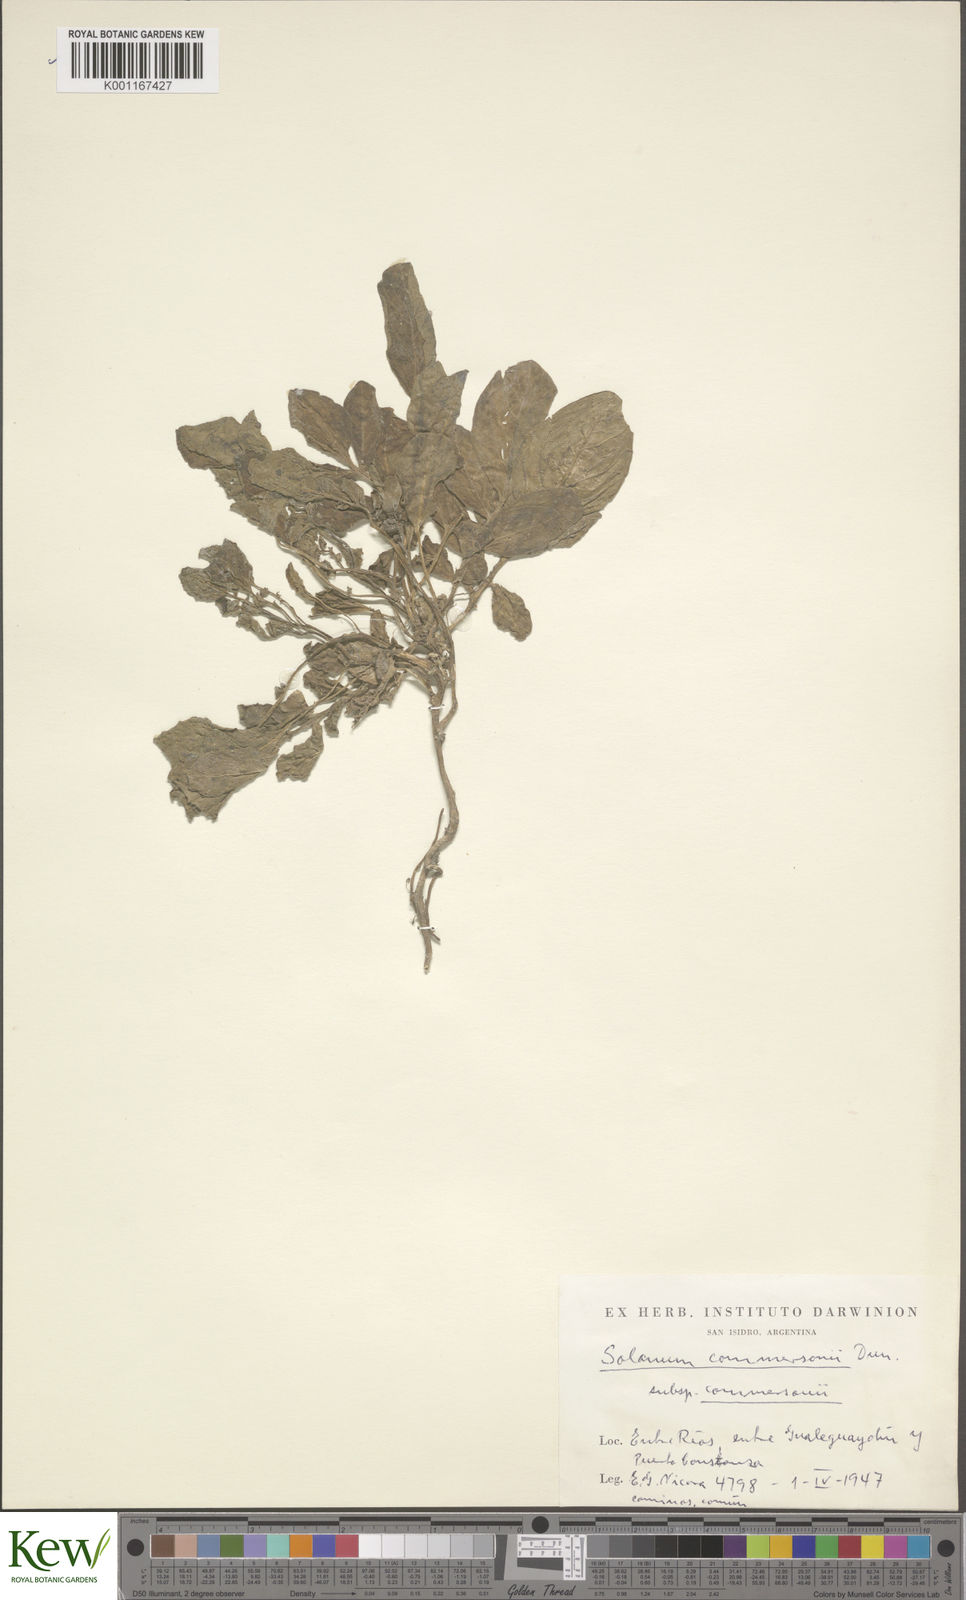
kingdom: Plantae
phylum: Tracheophyta
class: Magnoliopsida
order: Solanales
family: Solanaceae
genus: Solanum
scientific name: Solanum commersonii
